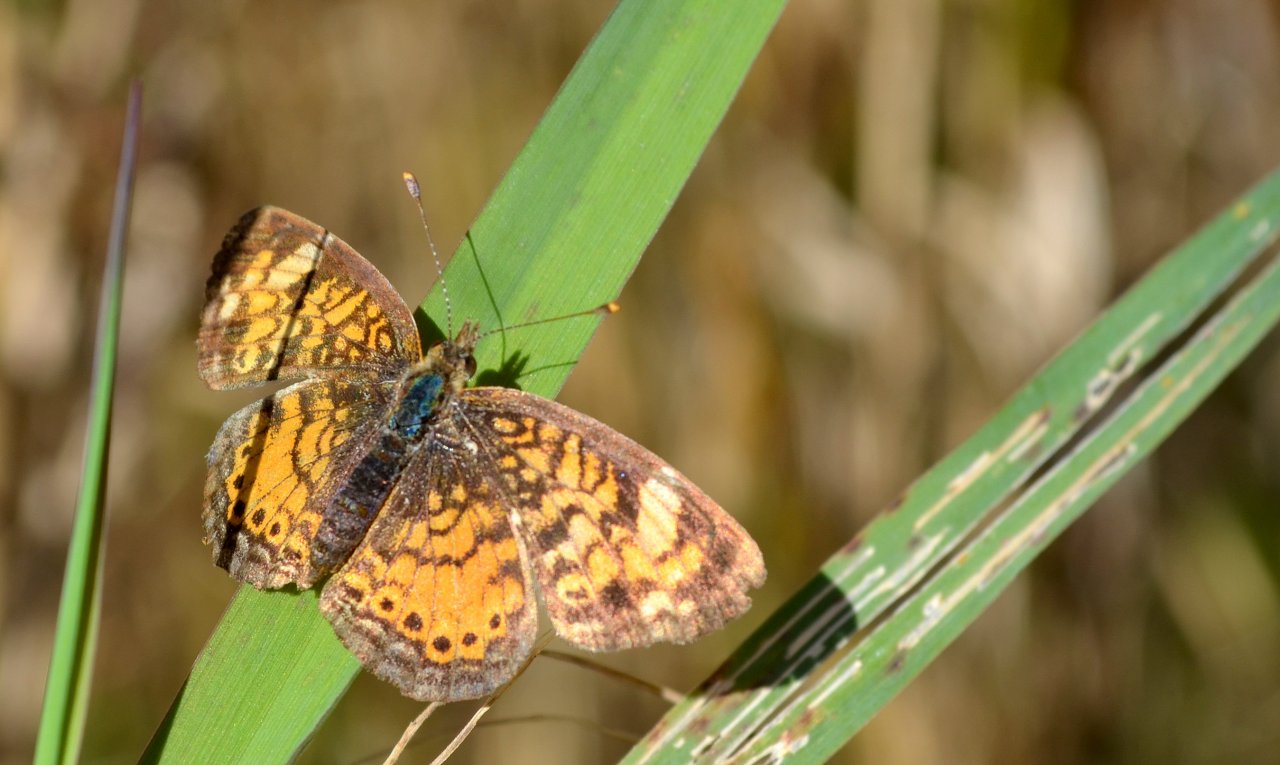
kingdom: Animalia
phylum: Arthropoda
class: Insecta
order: Lepidoptera
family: Nymphalidae
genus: Phyciodes
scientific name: Phyciodes
